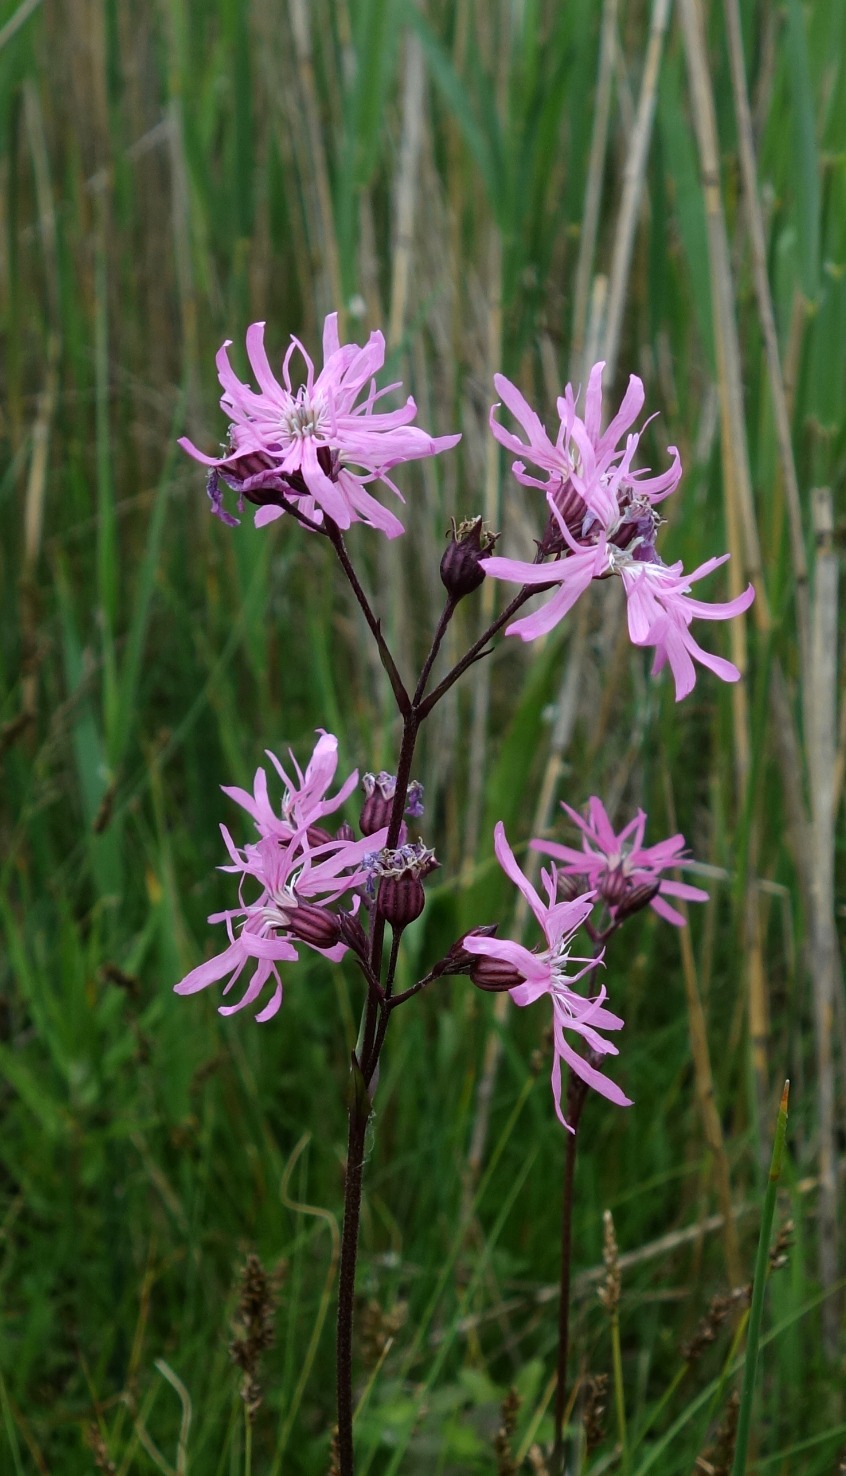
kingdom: Plantae
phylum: Tracheophyta
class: Magnoliopsida
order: Caryophyllales
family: Caryophyllaceae
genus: Silene
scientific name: Silene flos-cuculi
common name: Trævlekrone
